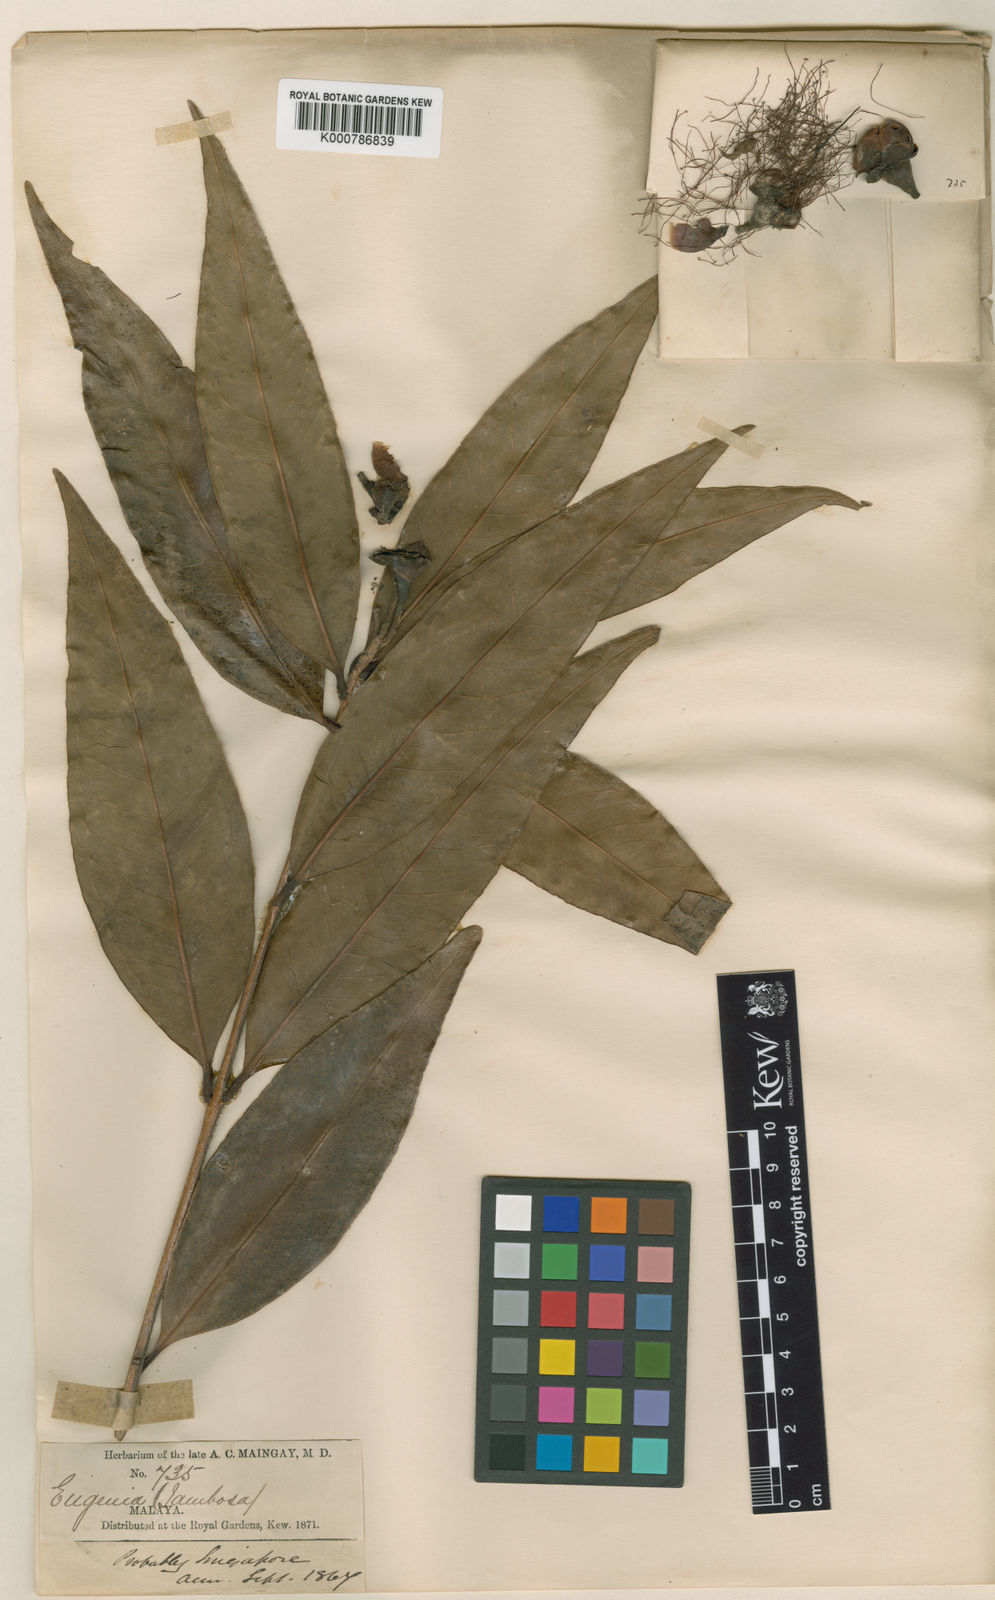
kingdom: Plantae
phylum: Tracheophyta
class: Magnoliopsida
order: Myrtales
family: Myrtaceae
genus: Syzygium
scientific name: Syzygium jambos
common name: Malabar plum
